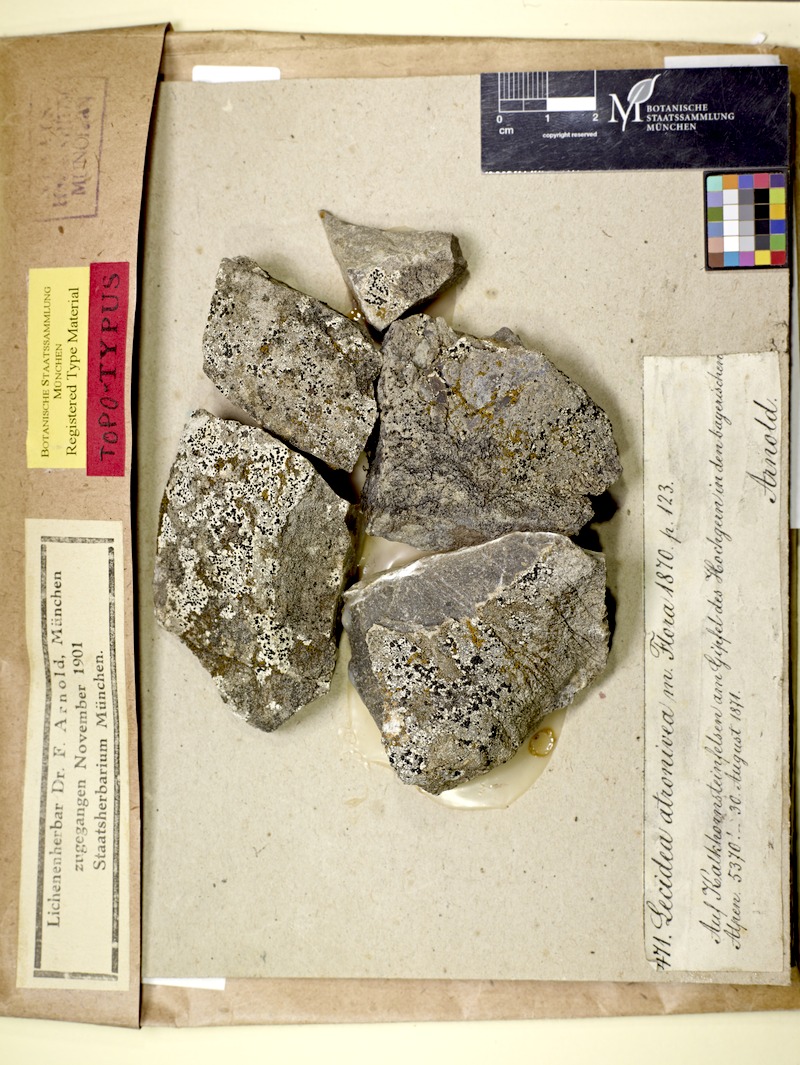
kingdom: Fungi
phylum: Ascomycota
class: Lecanoromycetes
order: Lecanorales
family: Lecanoraceae
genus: Carbonea
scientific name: Carbonea atronivea
